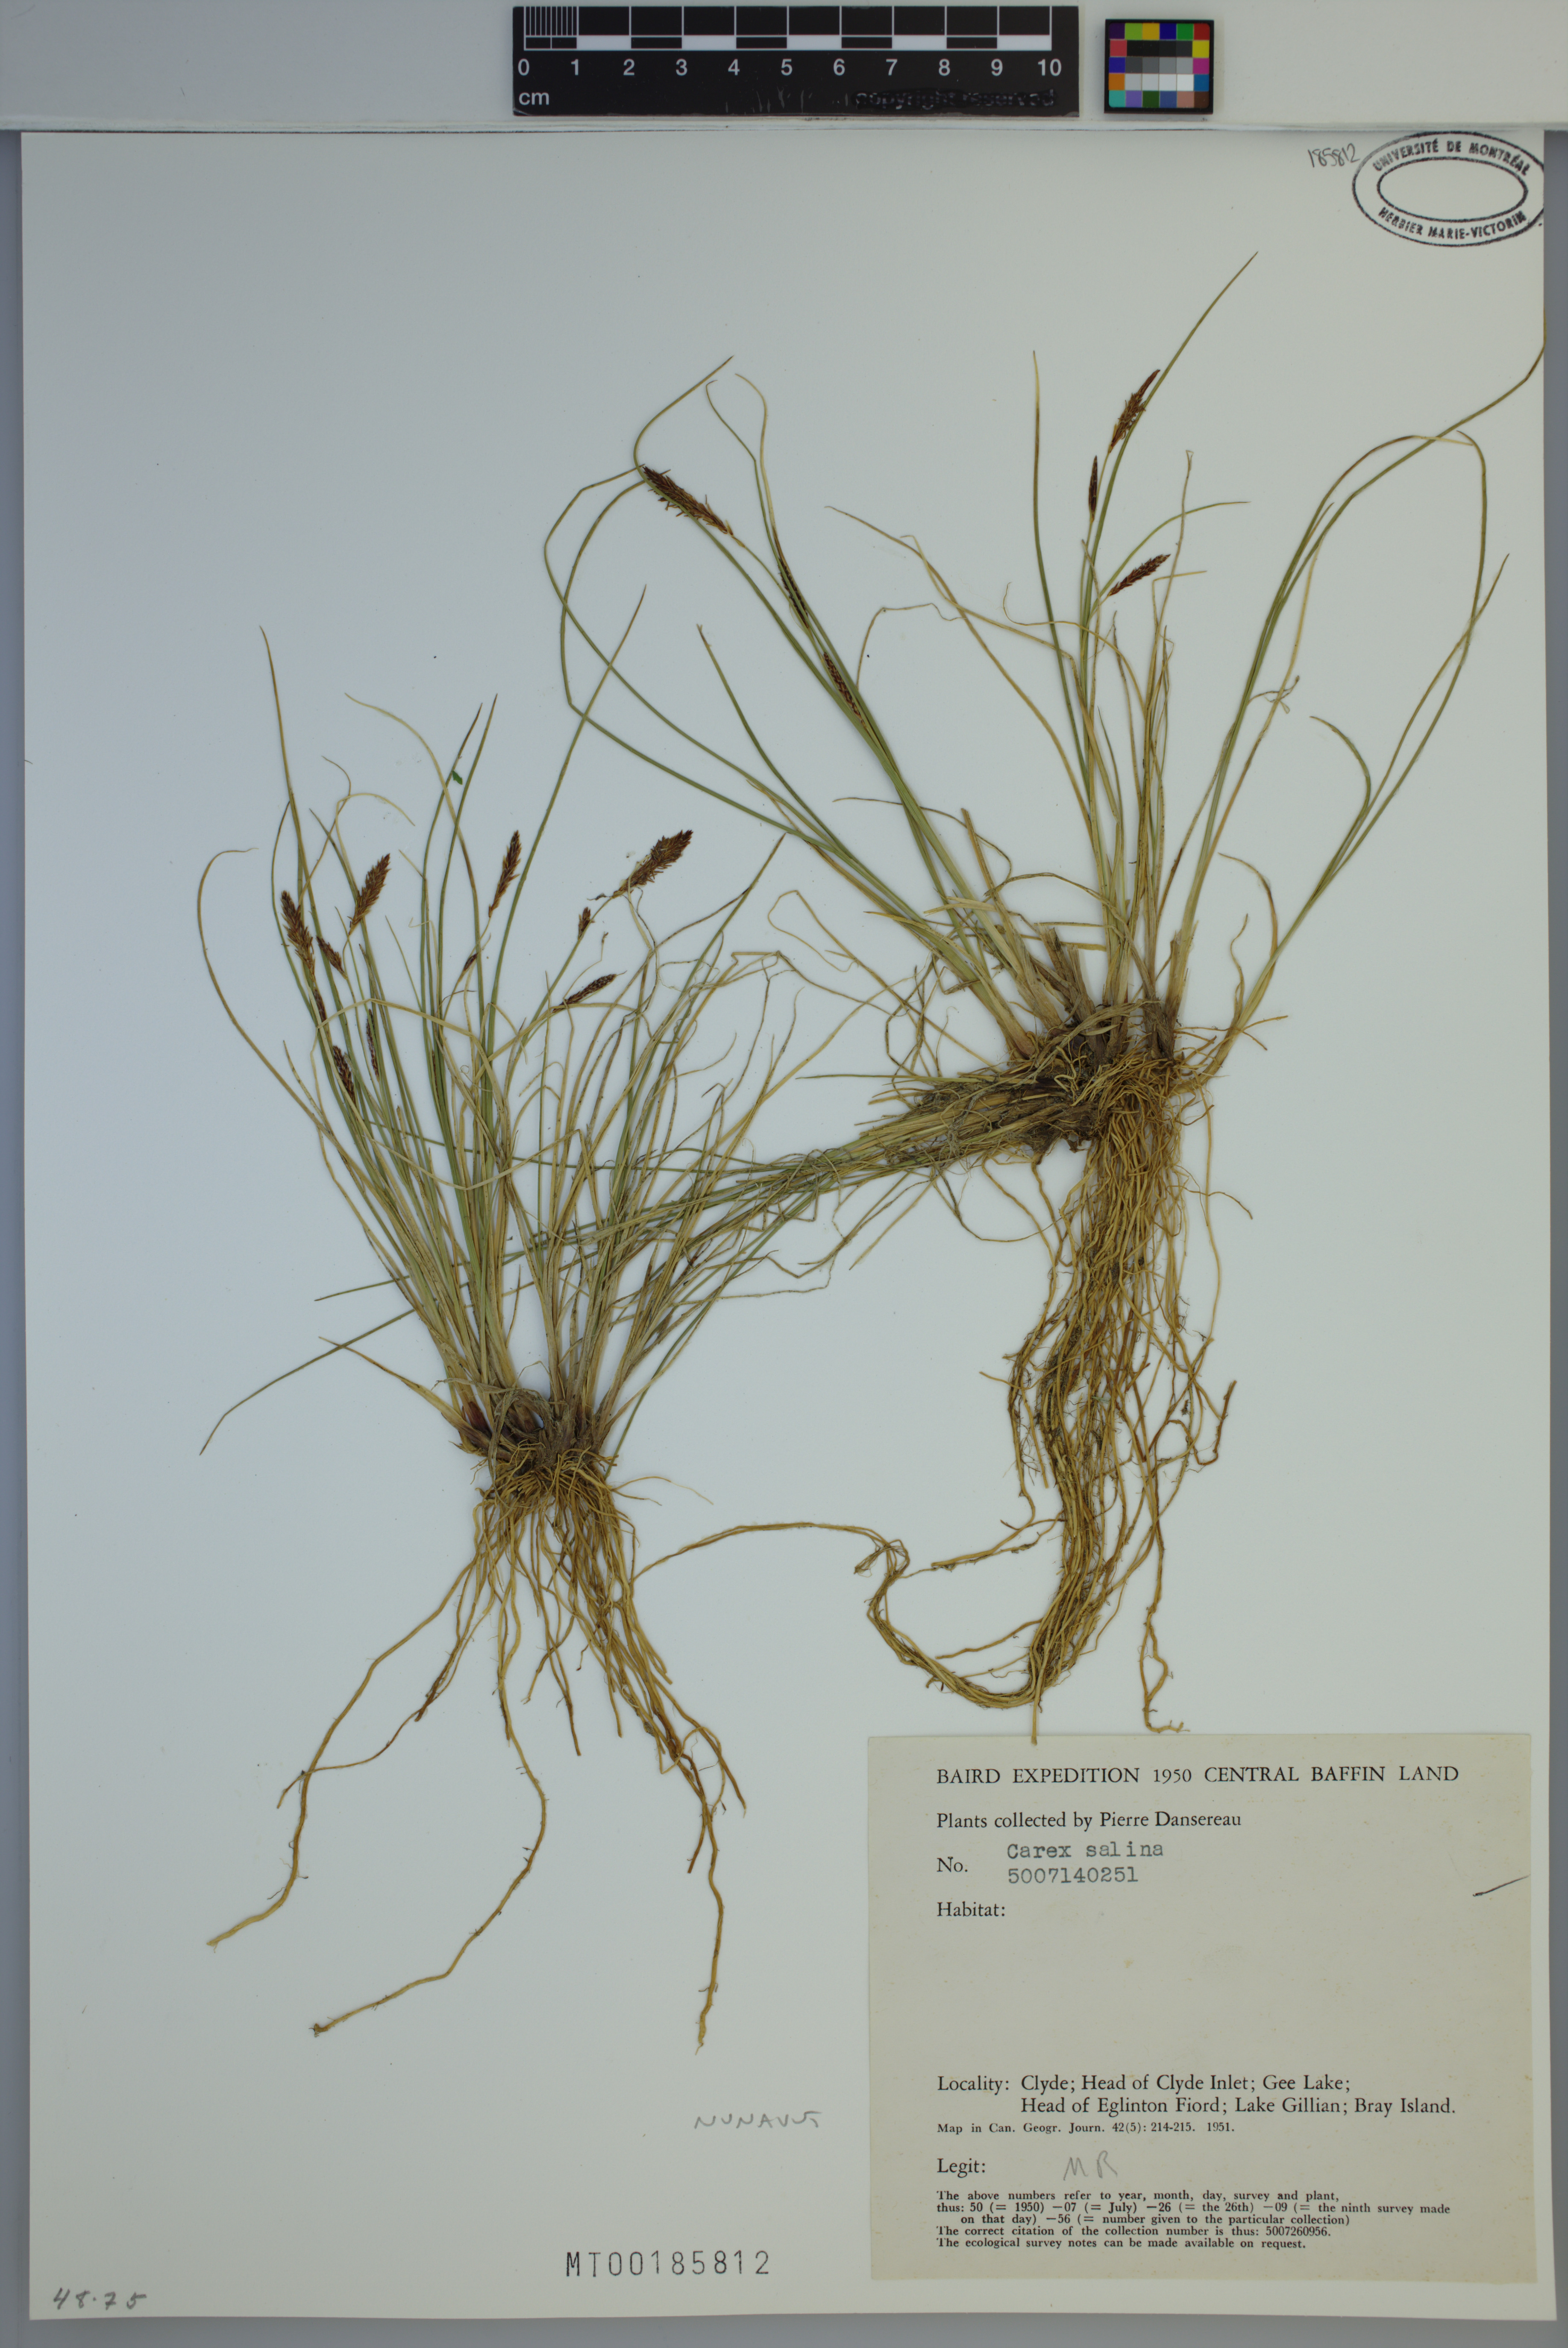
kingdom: Plantae
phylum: Tracheophyta
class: Liliopsida
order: Poales
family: Cyperaceae
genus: Carex
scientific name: Carex salina
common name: Saltmarsh sedge
